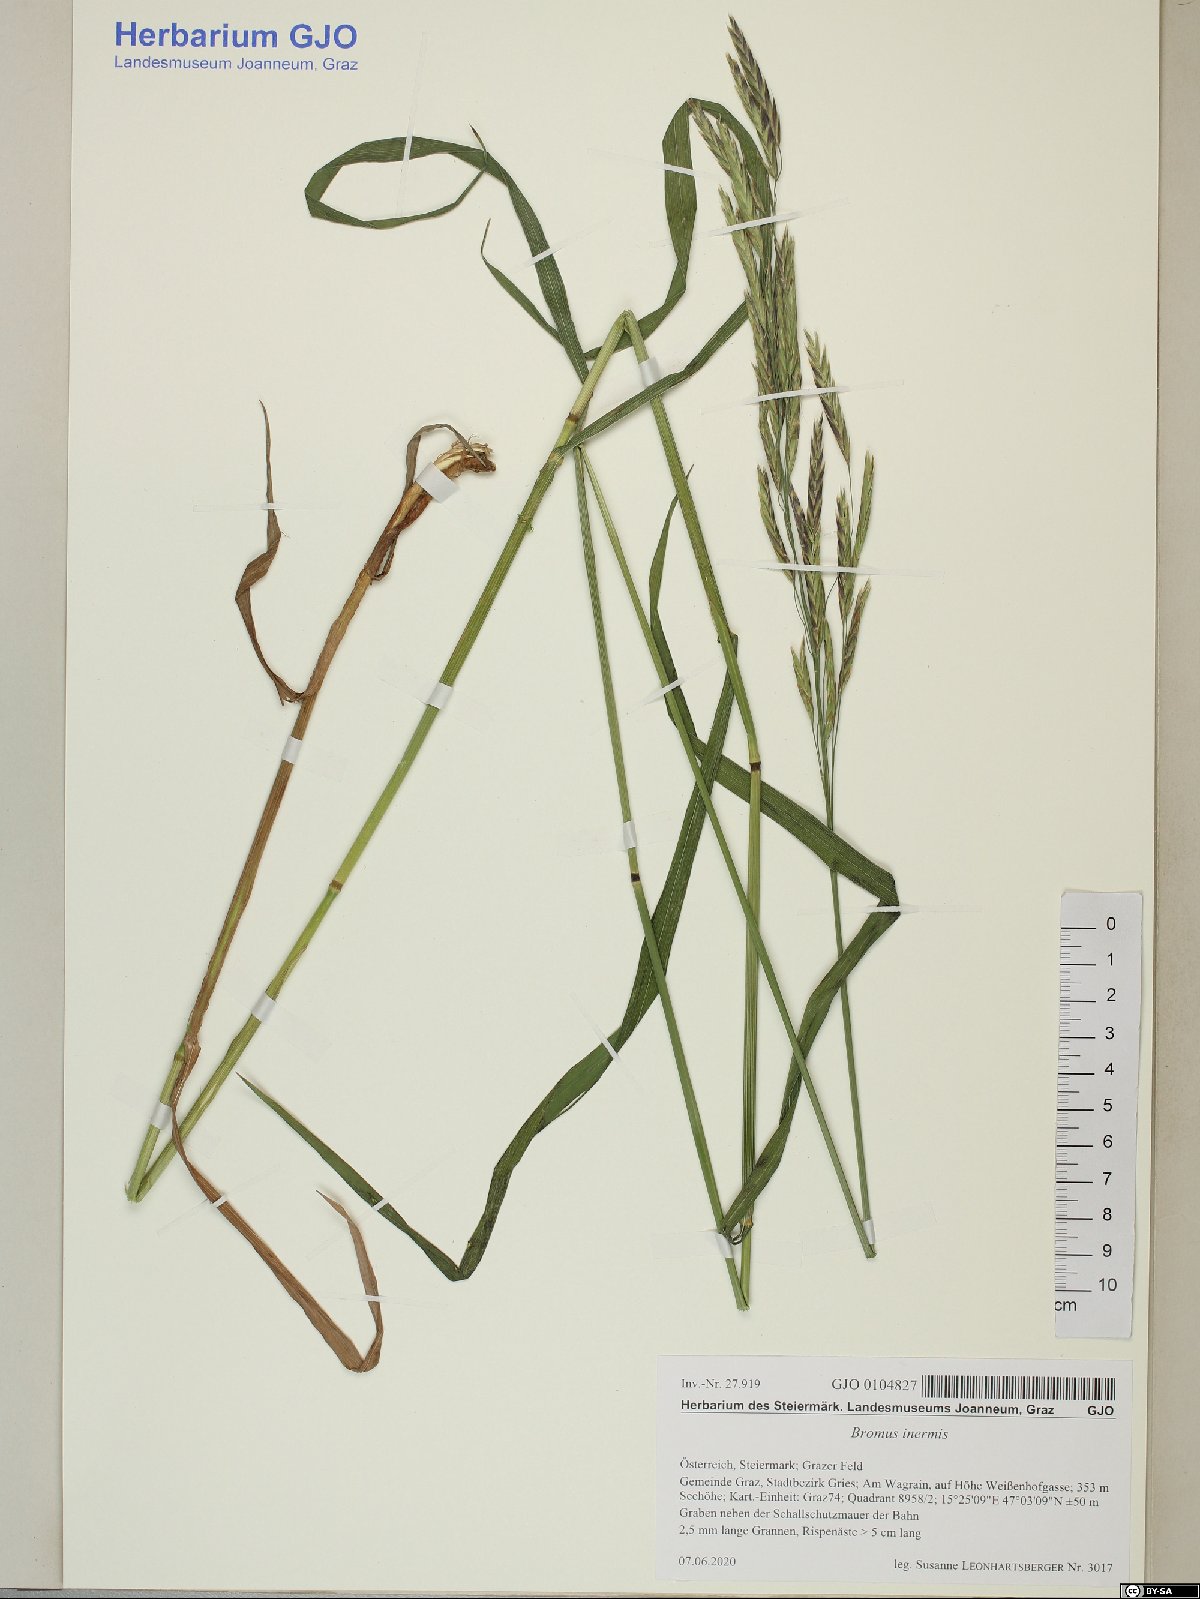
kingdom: Plantae
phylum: Tracheophyta
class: Liliopsida
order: Poales
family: Poaceae
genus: Bromus
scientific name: Bromus inermis
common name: Smooth brome
